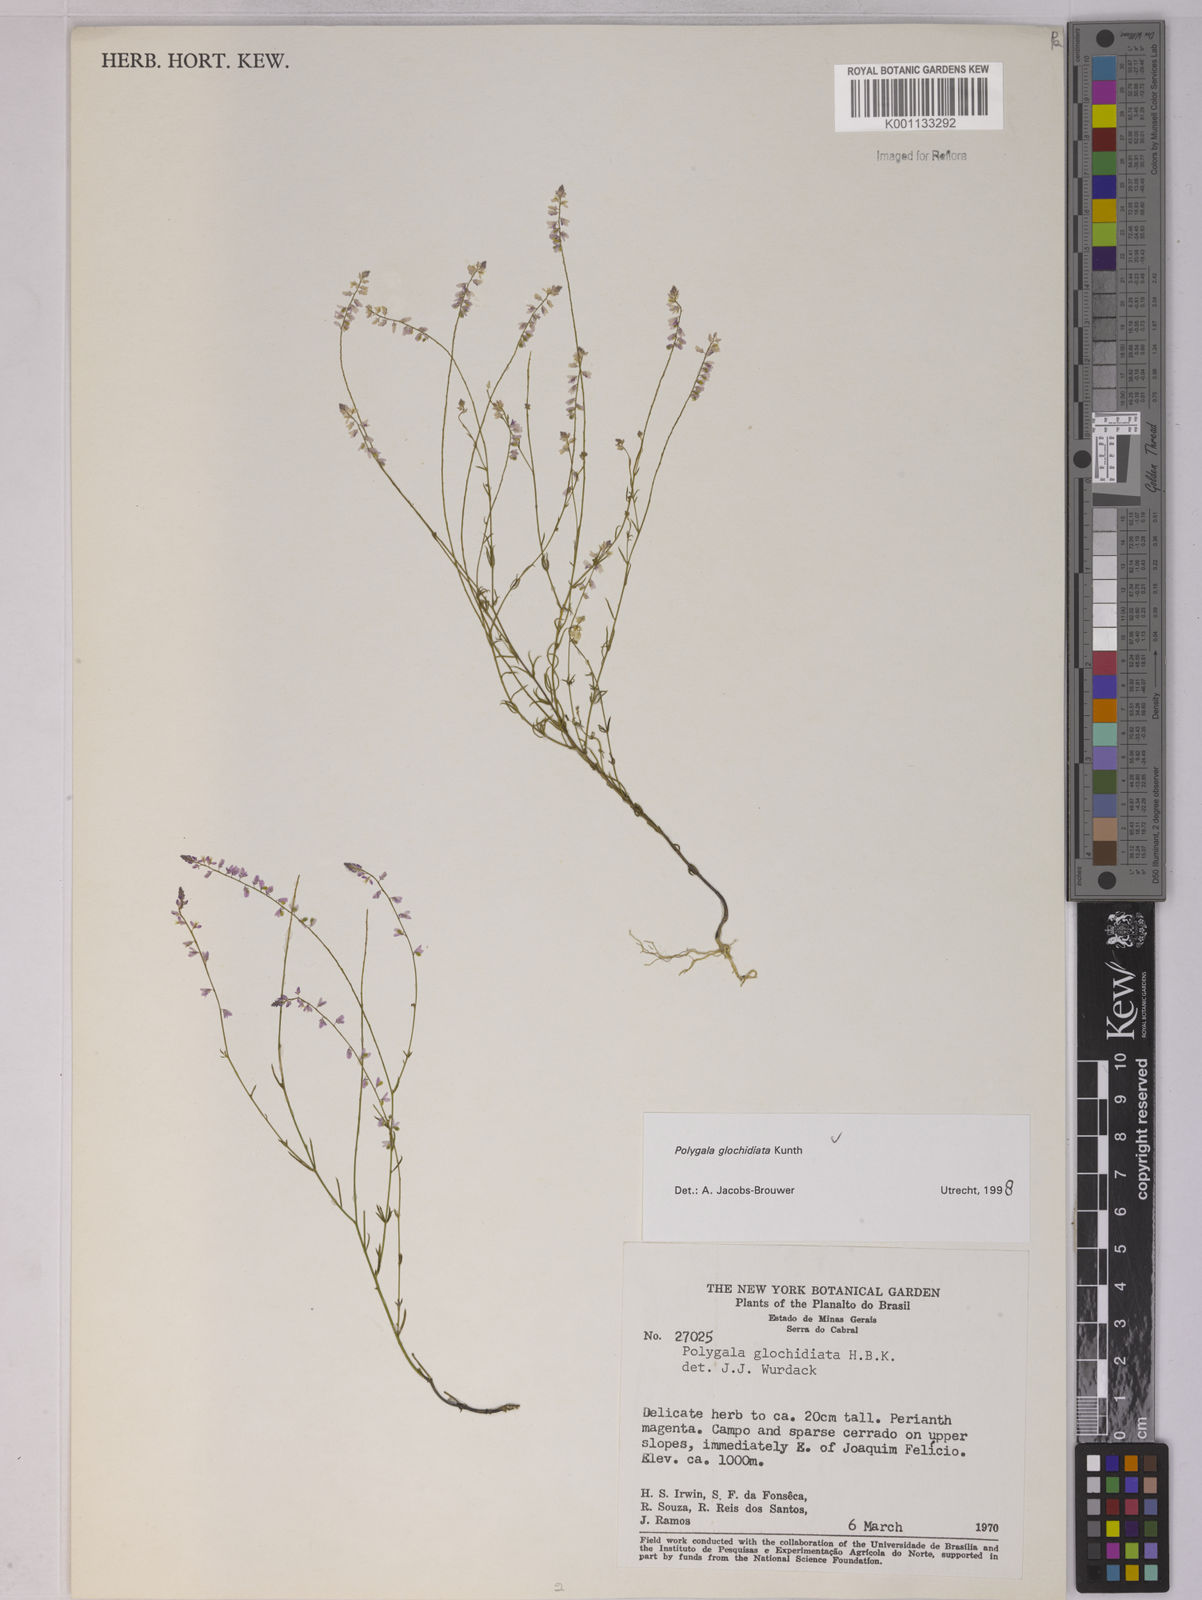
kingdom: Plantae
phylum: Tracheophyta
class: Magnoliopsida
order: Fabales
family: Polygalaceae
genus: Polygala
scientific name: Polygala glochidiata
